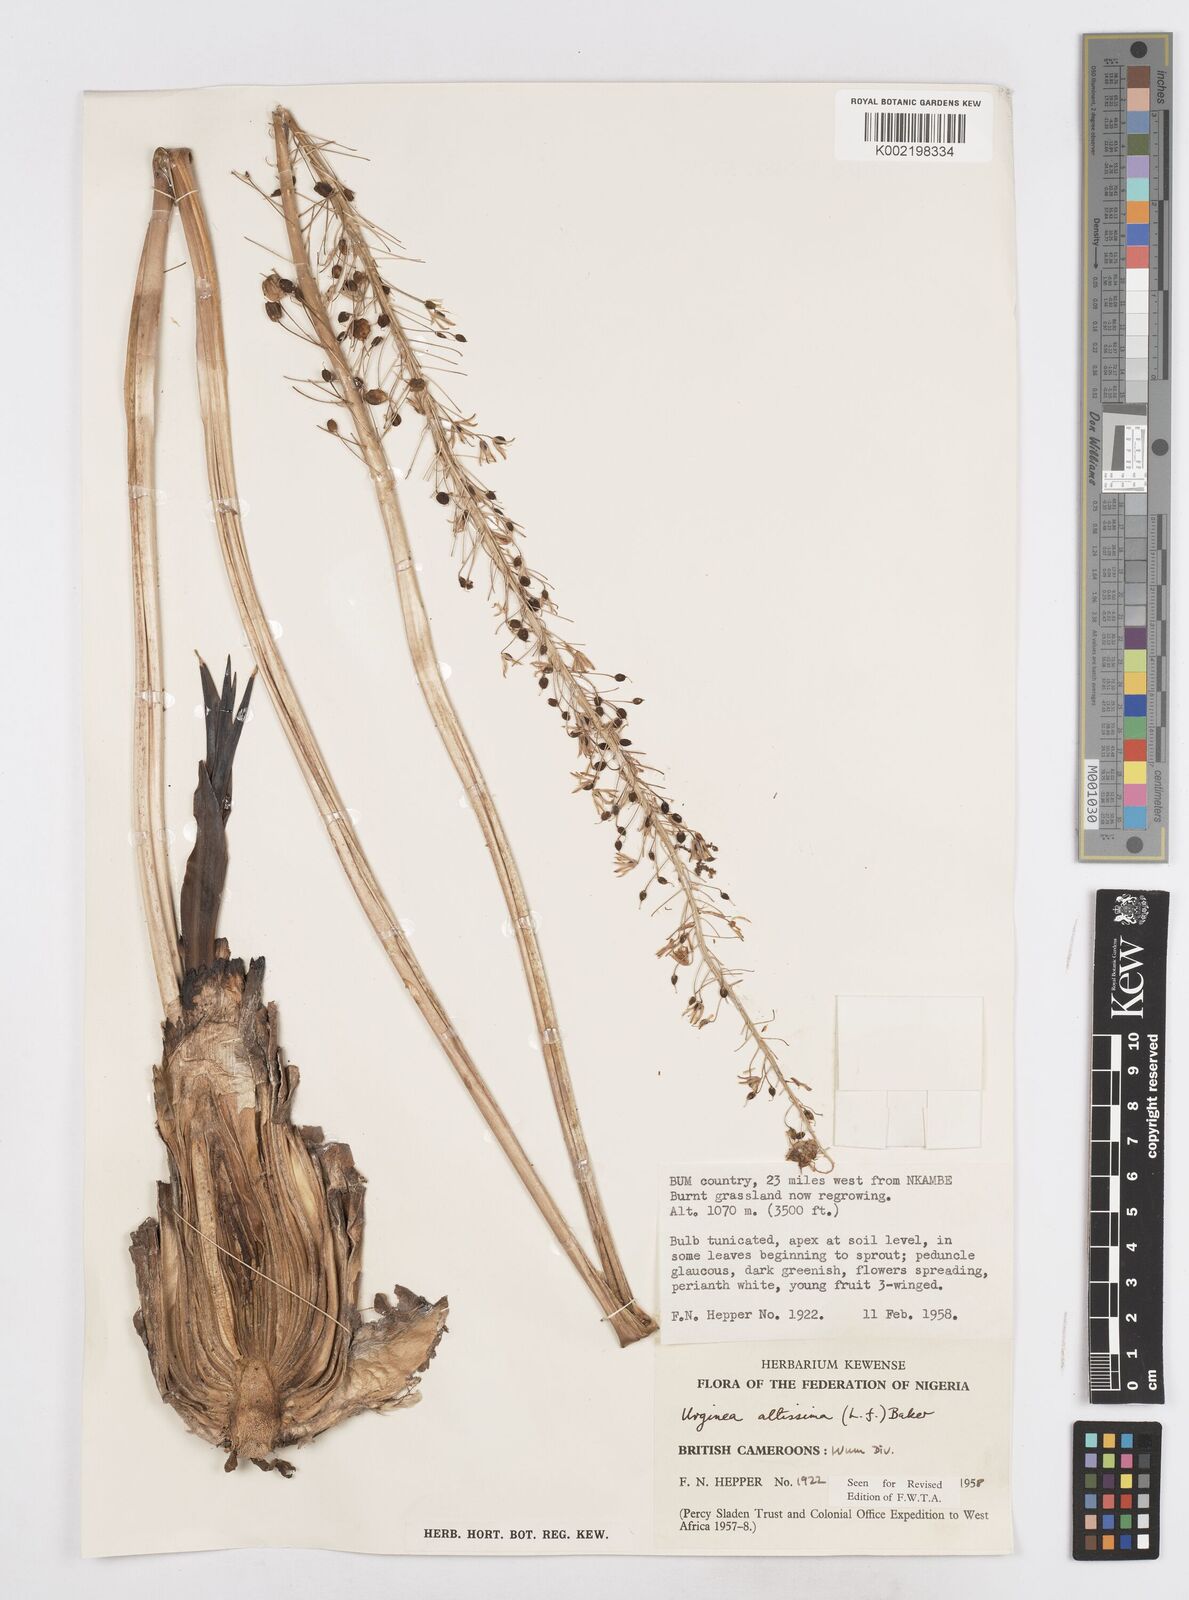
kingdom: Plantae
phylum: Tracheophyta
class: Liliopsida
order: Asparagales
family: Asparagaceae
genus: Drimia
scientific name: Drimia altissima
